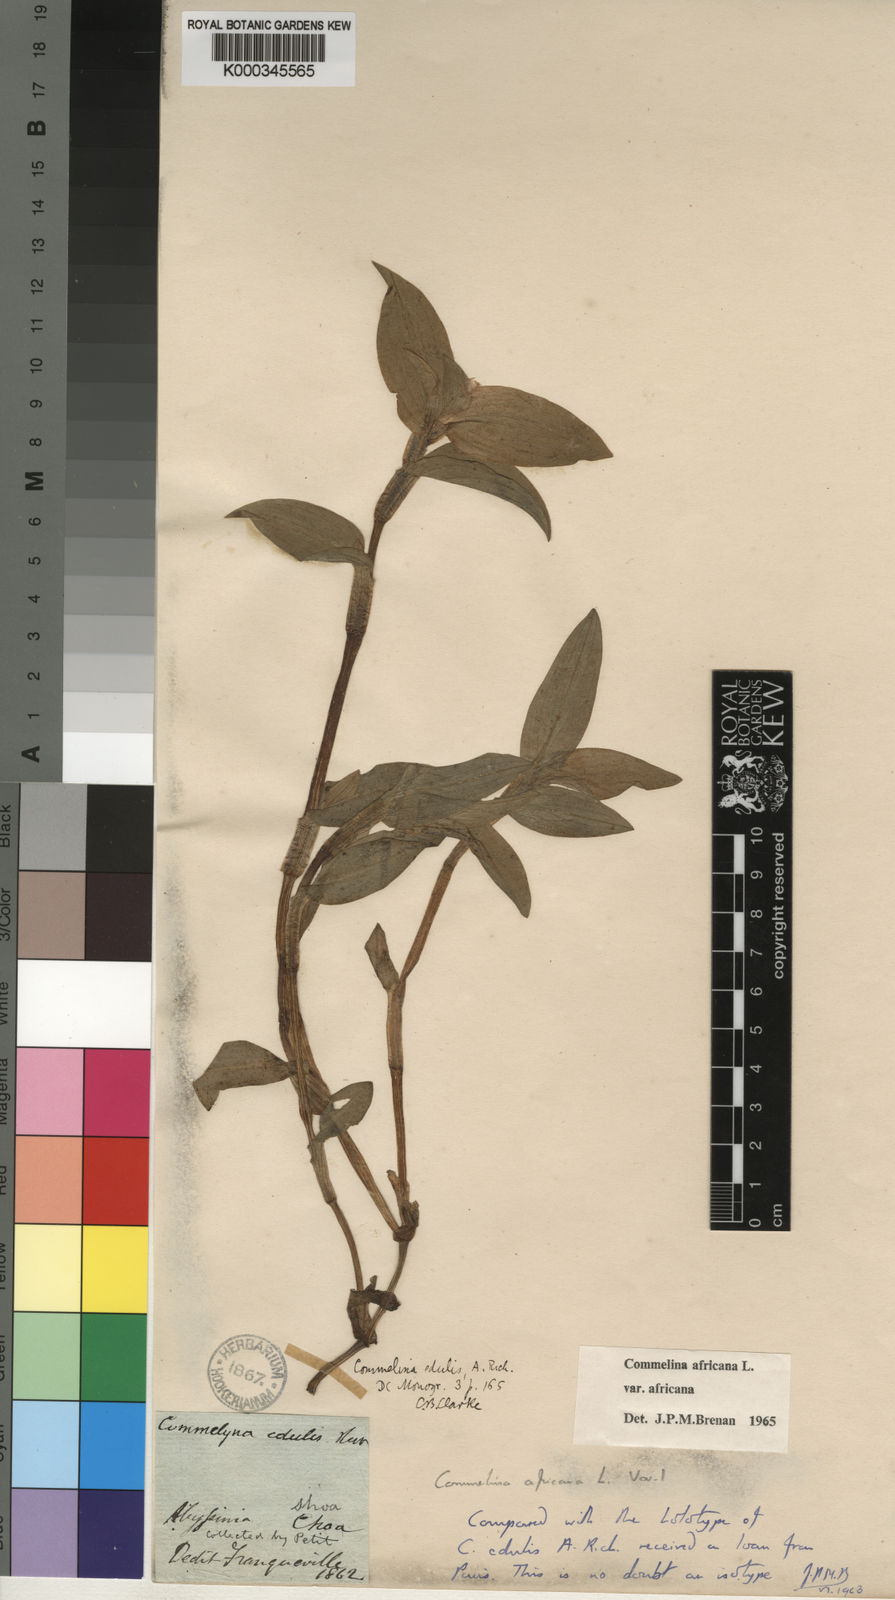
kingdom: Plantae
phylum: Tracheophyta
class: Liliopsida
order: Commelinales
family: Commelinaceae
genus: Commelina
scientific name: Commelina africana
